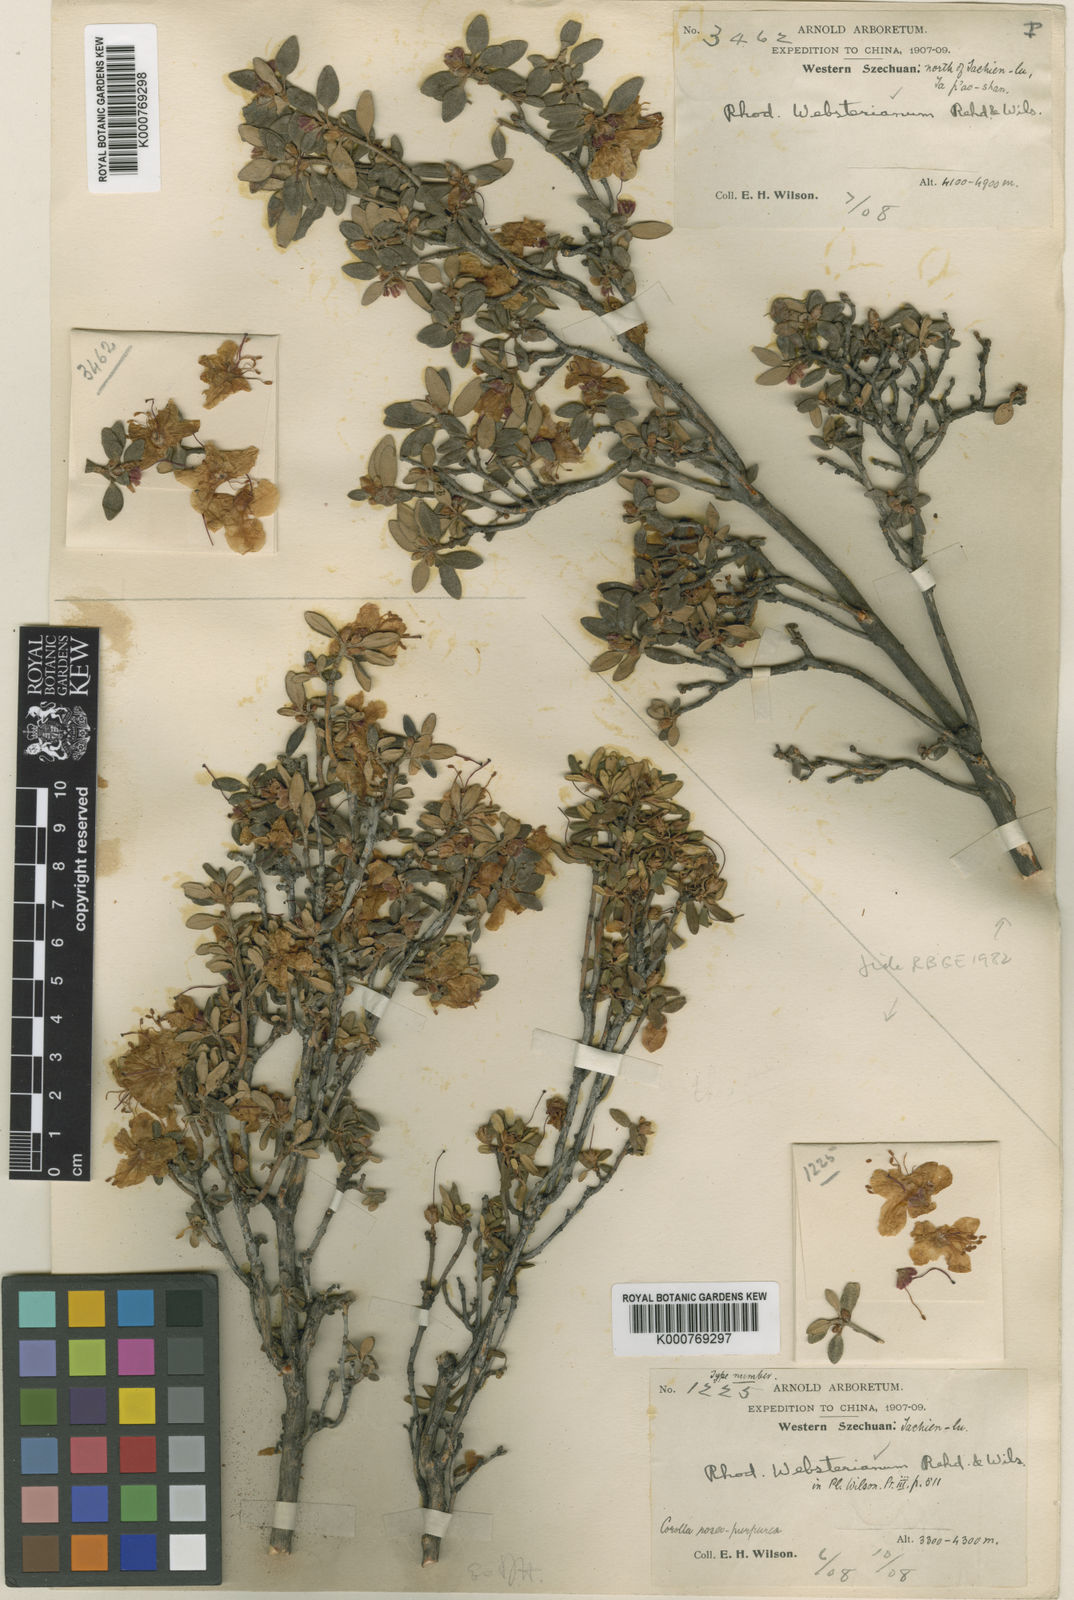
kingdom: Plantae
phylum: Tracheophyta
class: Magnoliopsida
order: Ericales
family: Ericaceae
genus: Rhododendron
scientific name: Rhododendron websterianum
